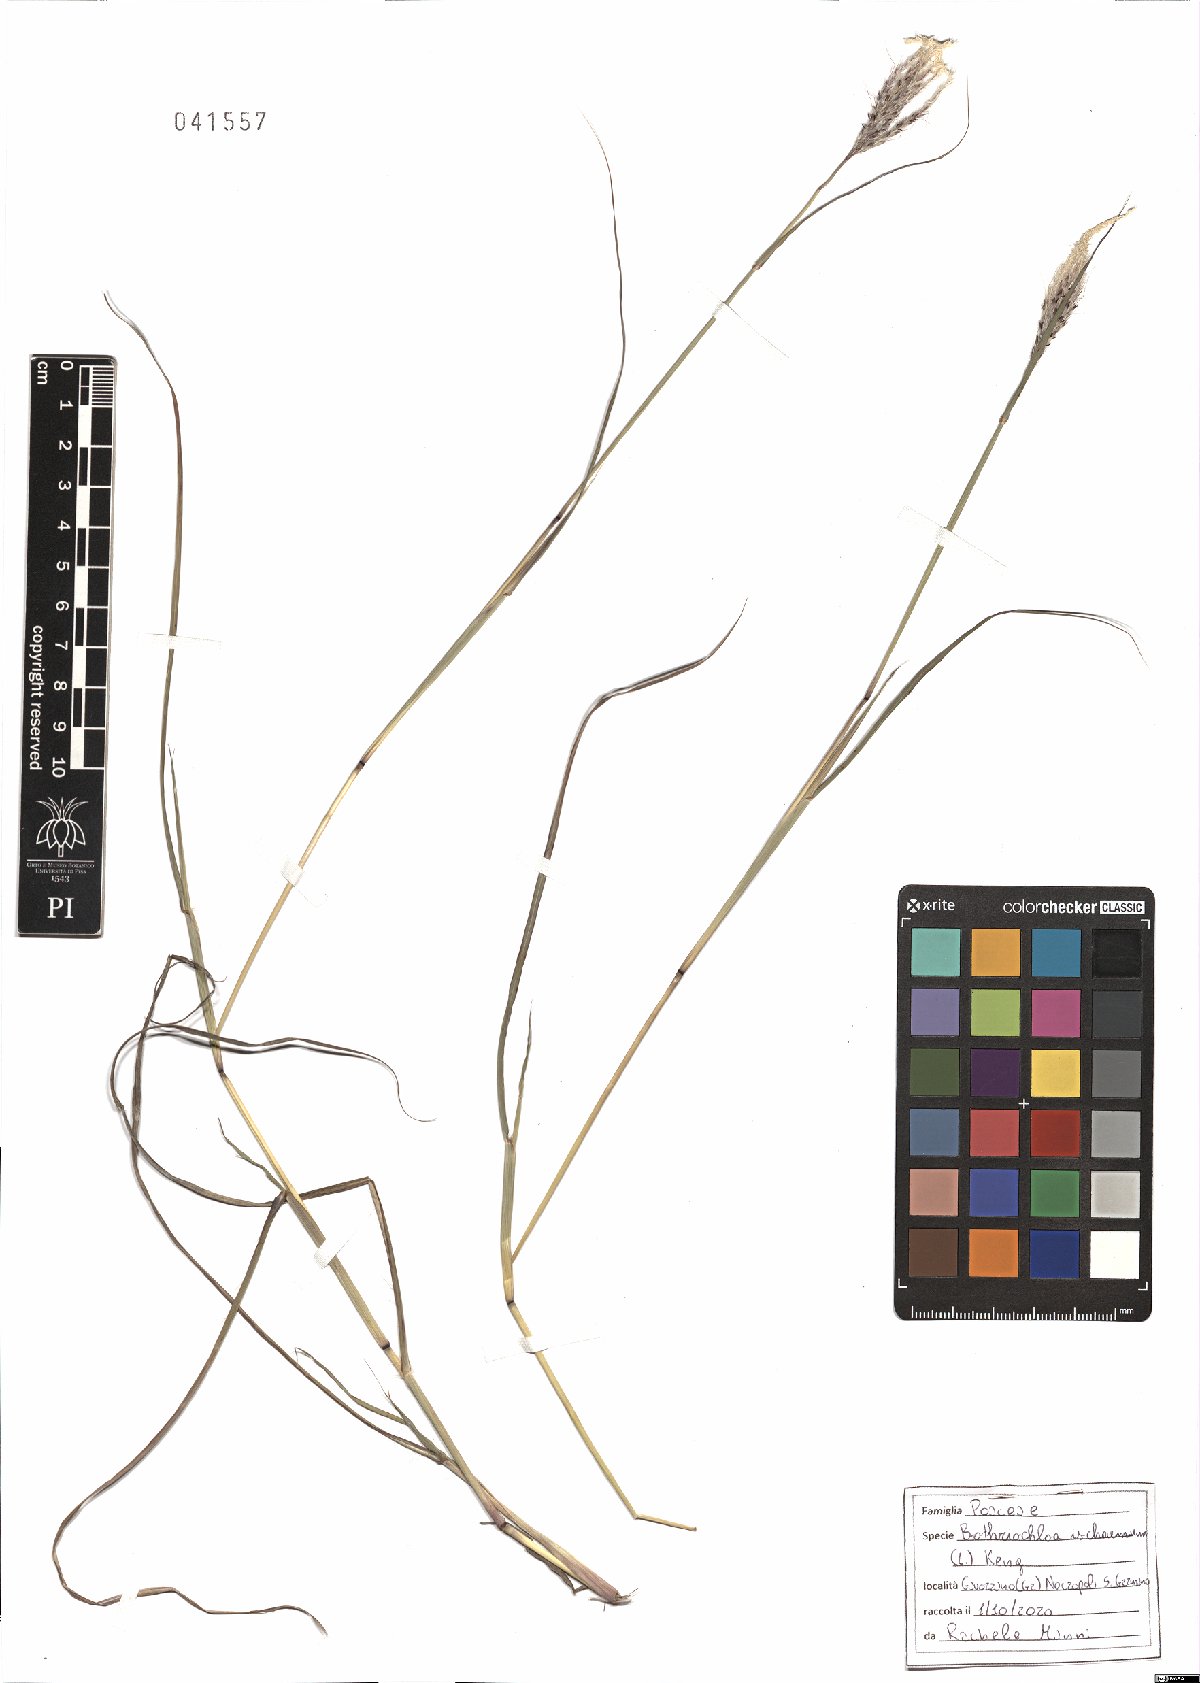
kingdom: Plantae
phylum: Tracheophyta
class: Liliopsida
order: Poales
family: Poaceae
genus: Bothriochloa
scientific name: Bothriochloa ischaemum
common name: Yellow bluestem
